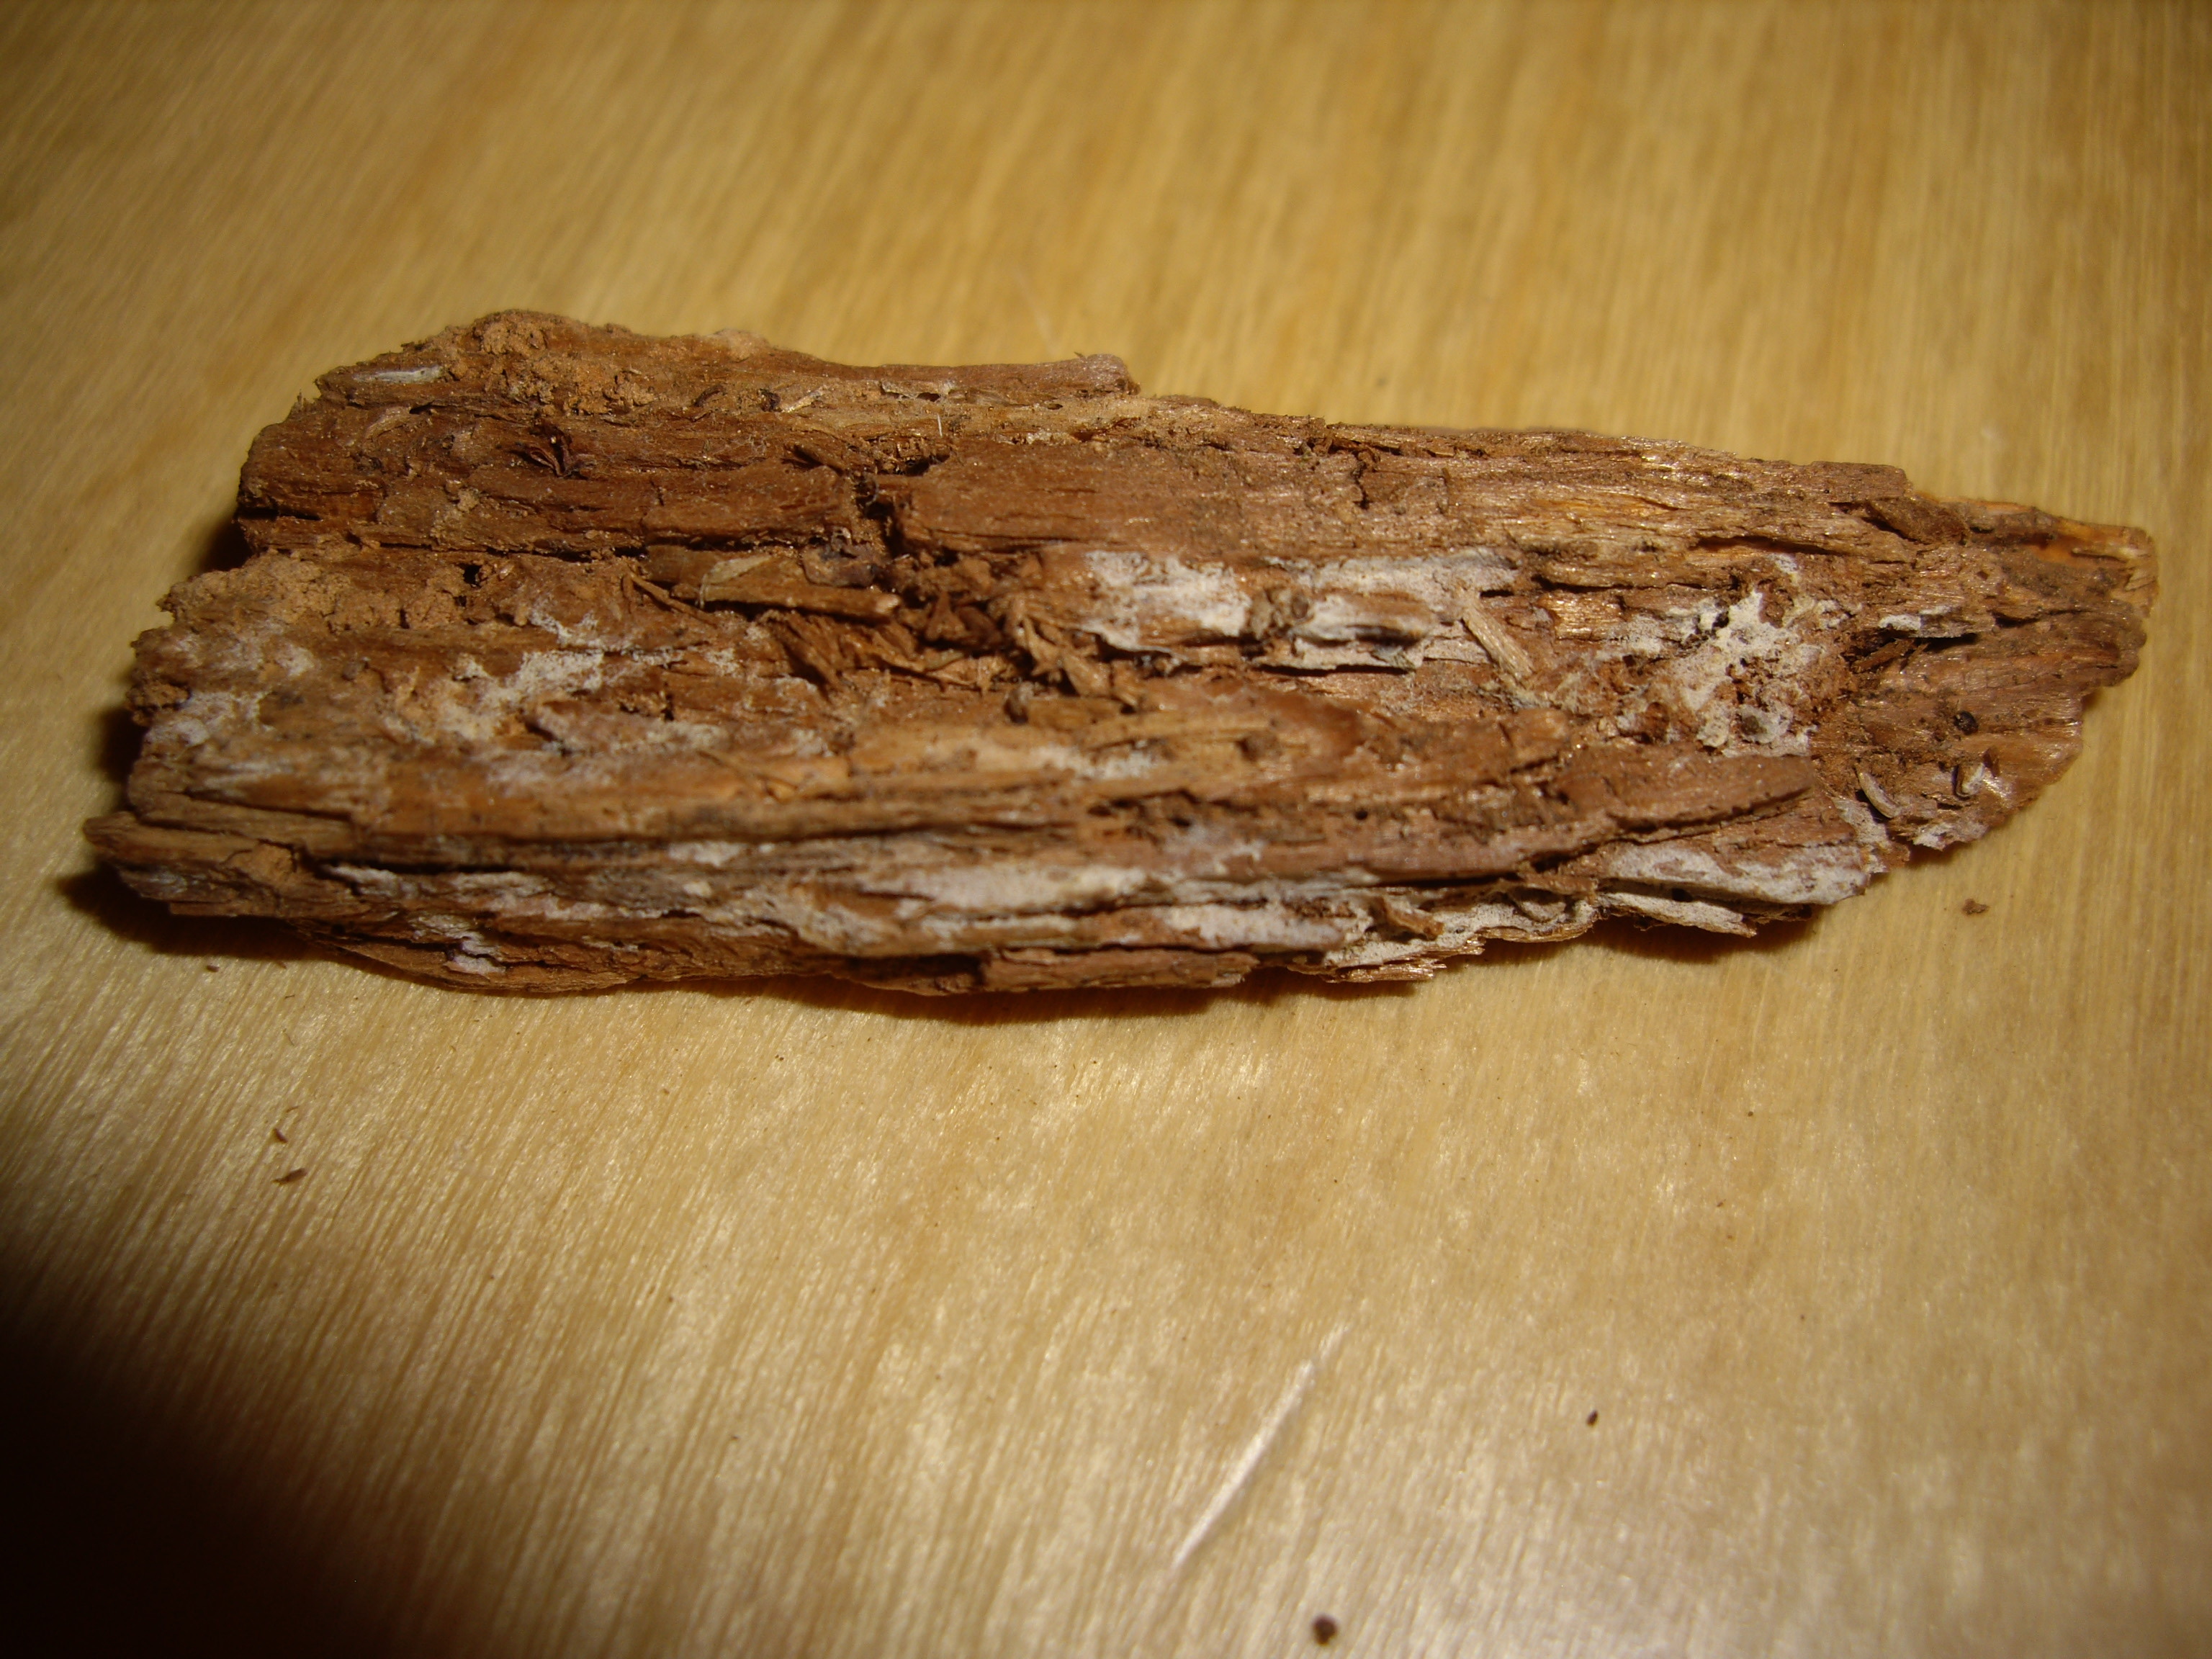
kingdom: Fungi
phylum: Basidiomycota
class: Agaricomycetes
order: Hymenochaetales
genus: Kurtia
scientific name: Kurtia argillacea
